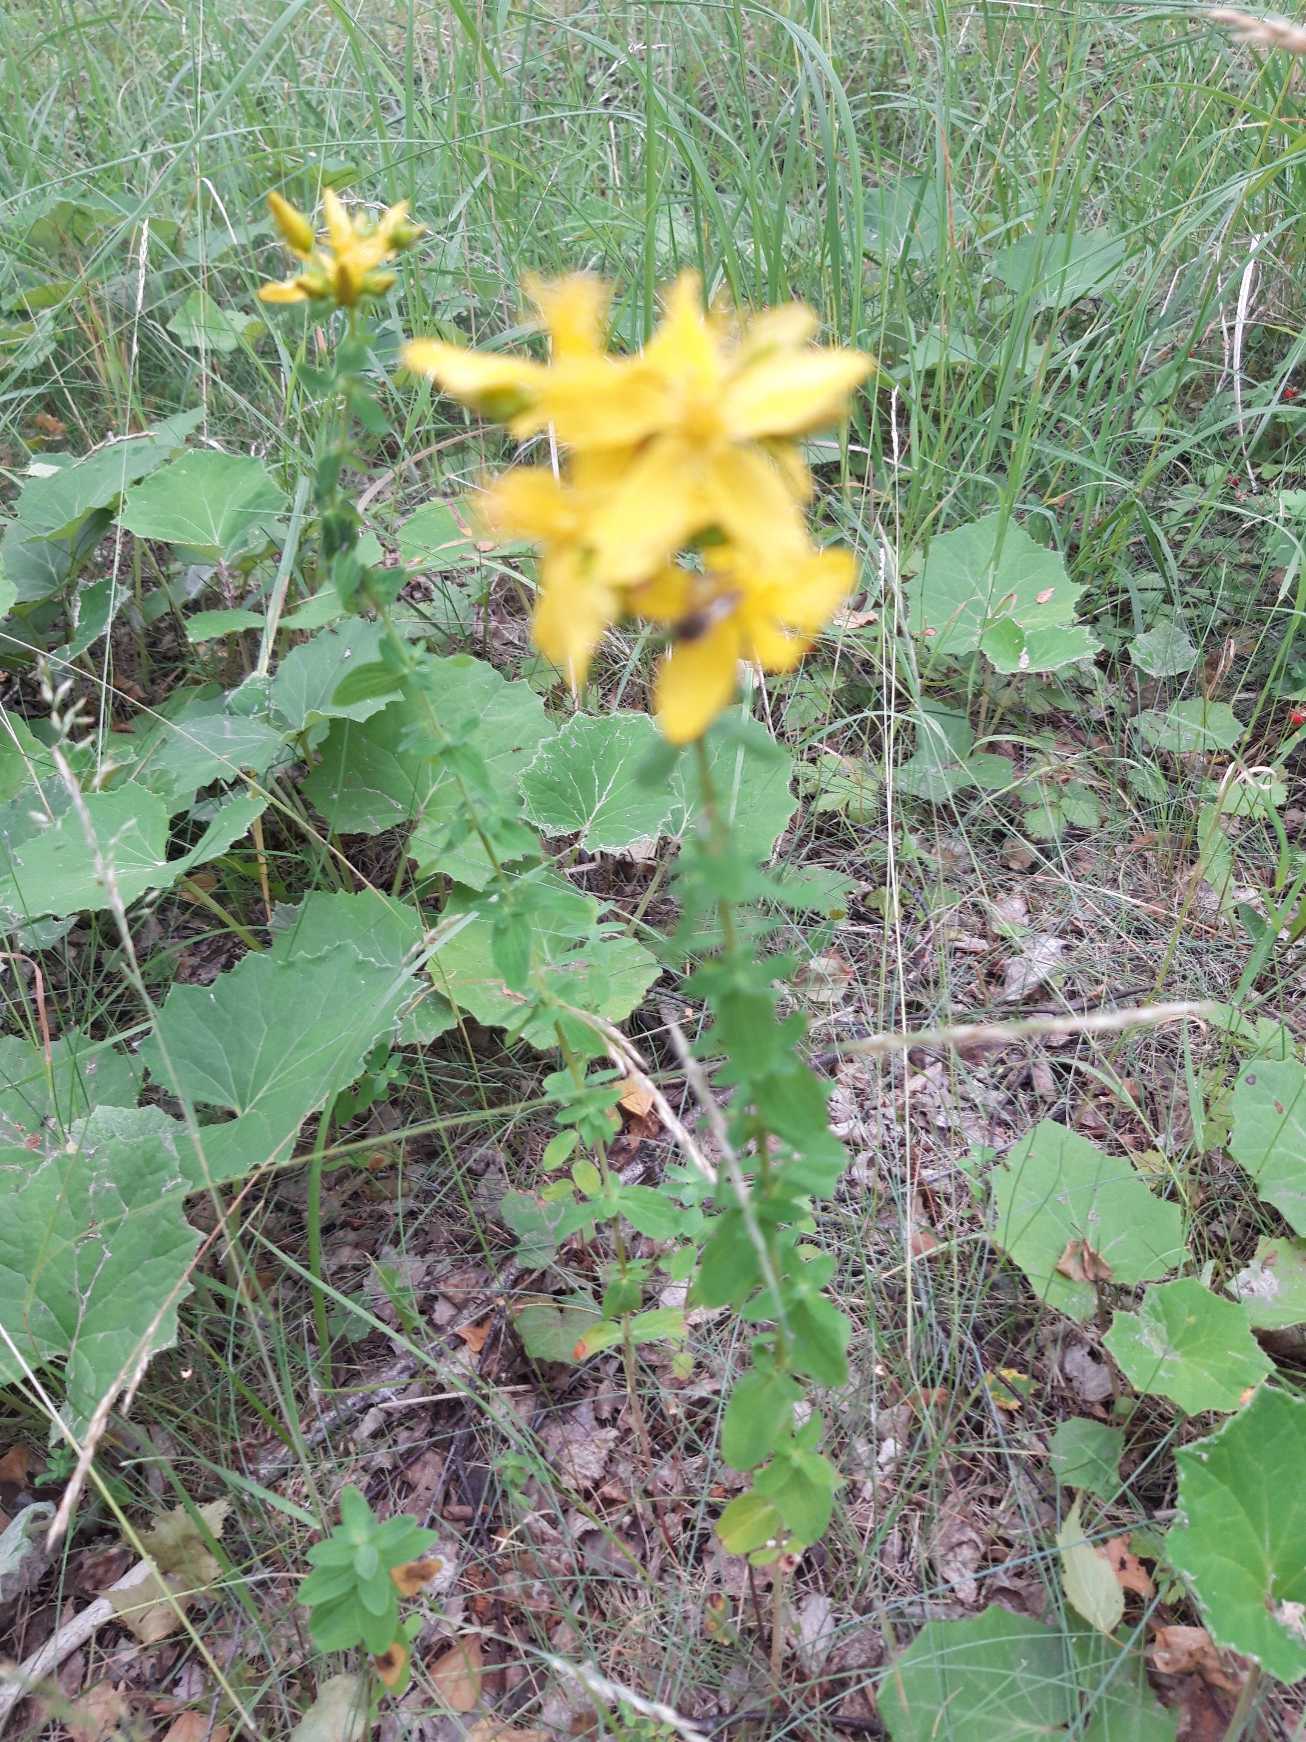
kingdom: Plantae
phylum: Tracheophyta
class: Magnoliopsida
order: Malpighiales
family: Hypericaceae
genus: Hypericum
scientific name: Hypericum
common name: Perikonslægten
